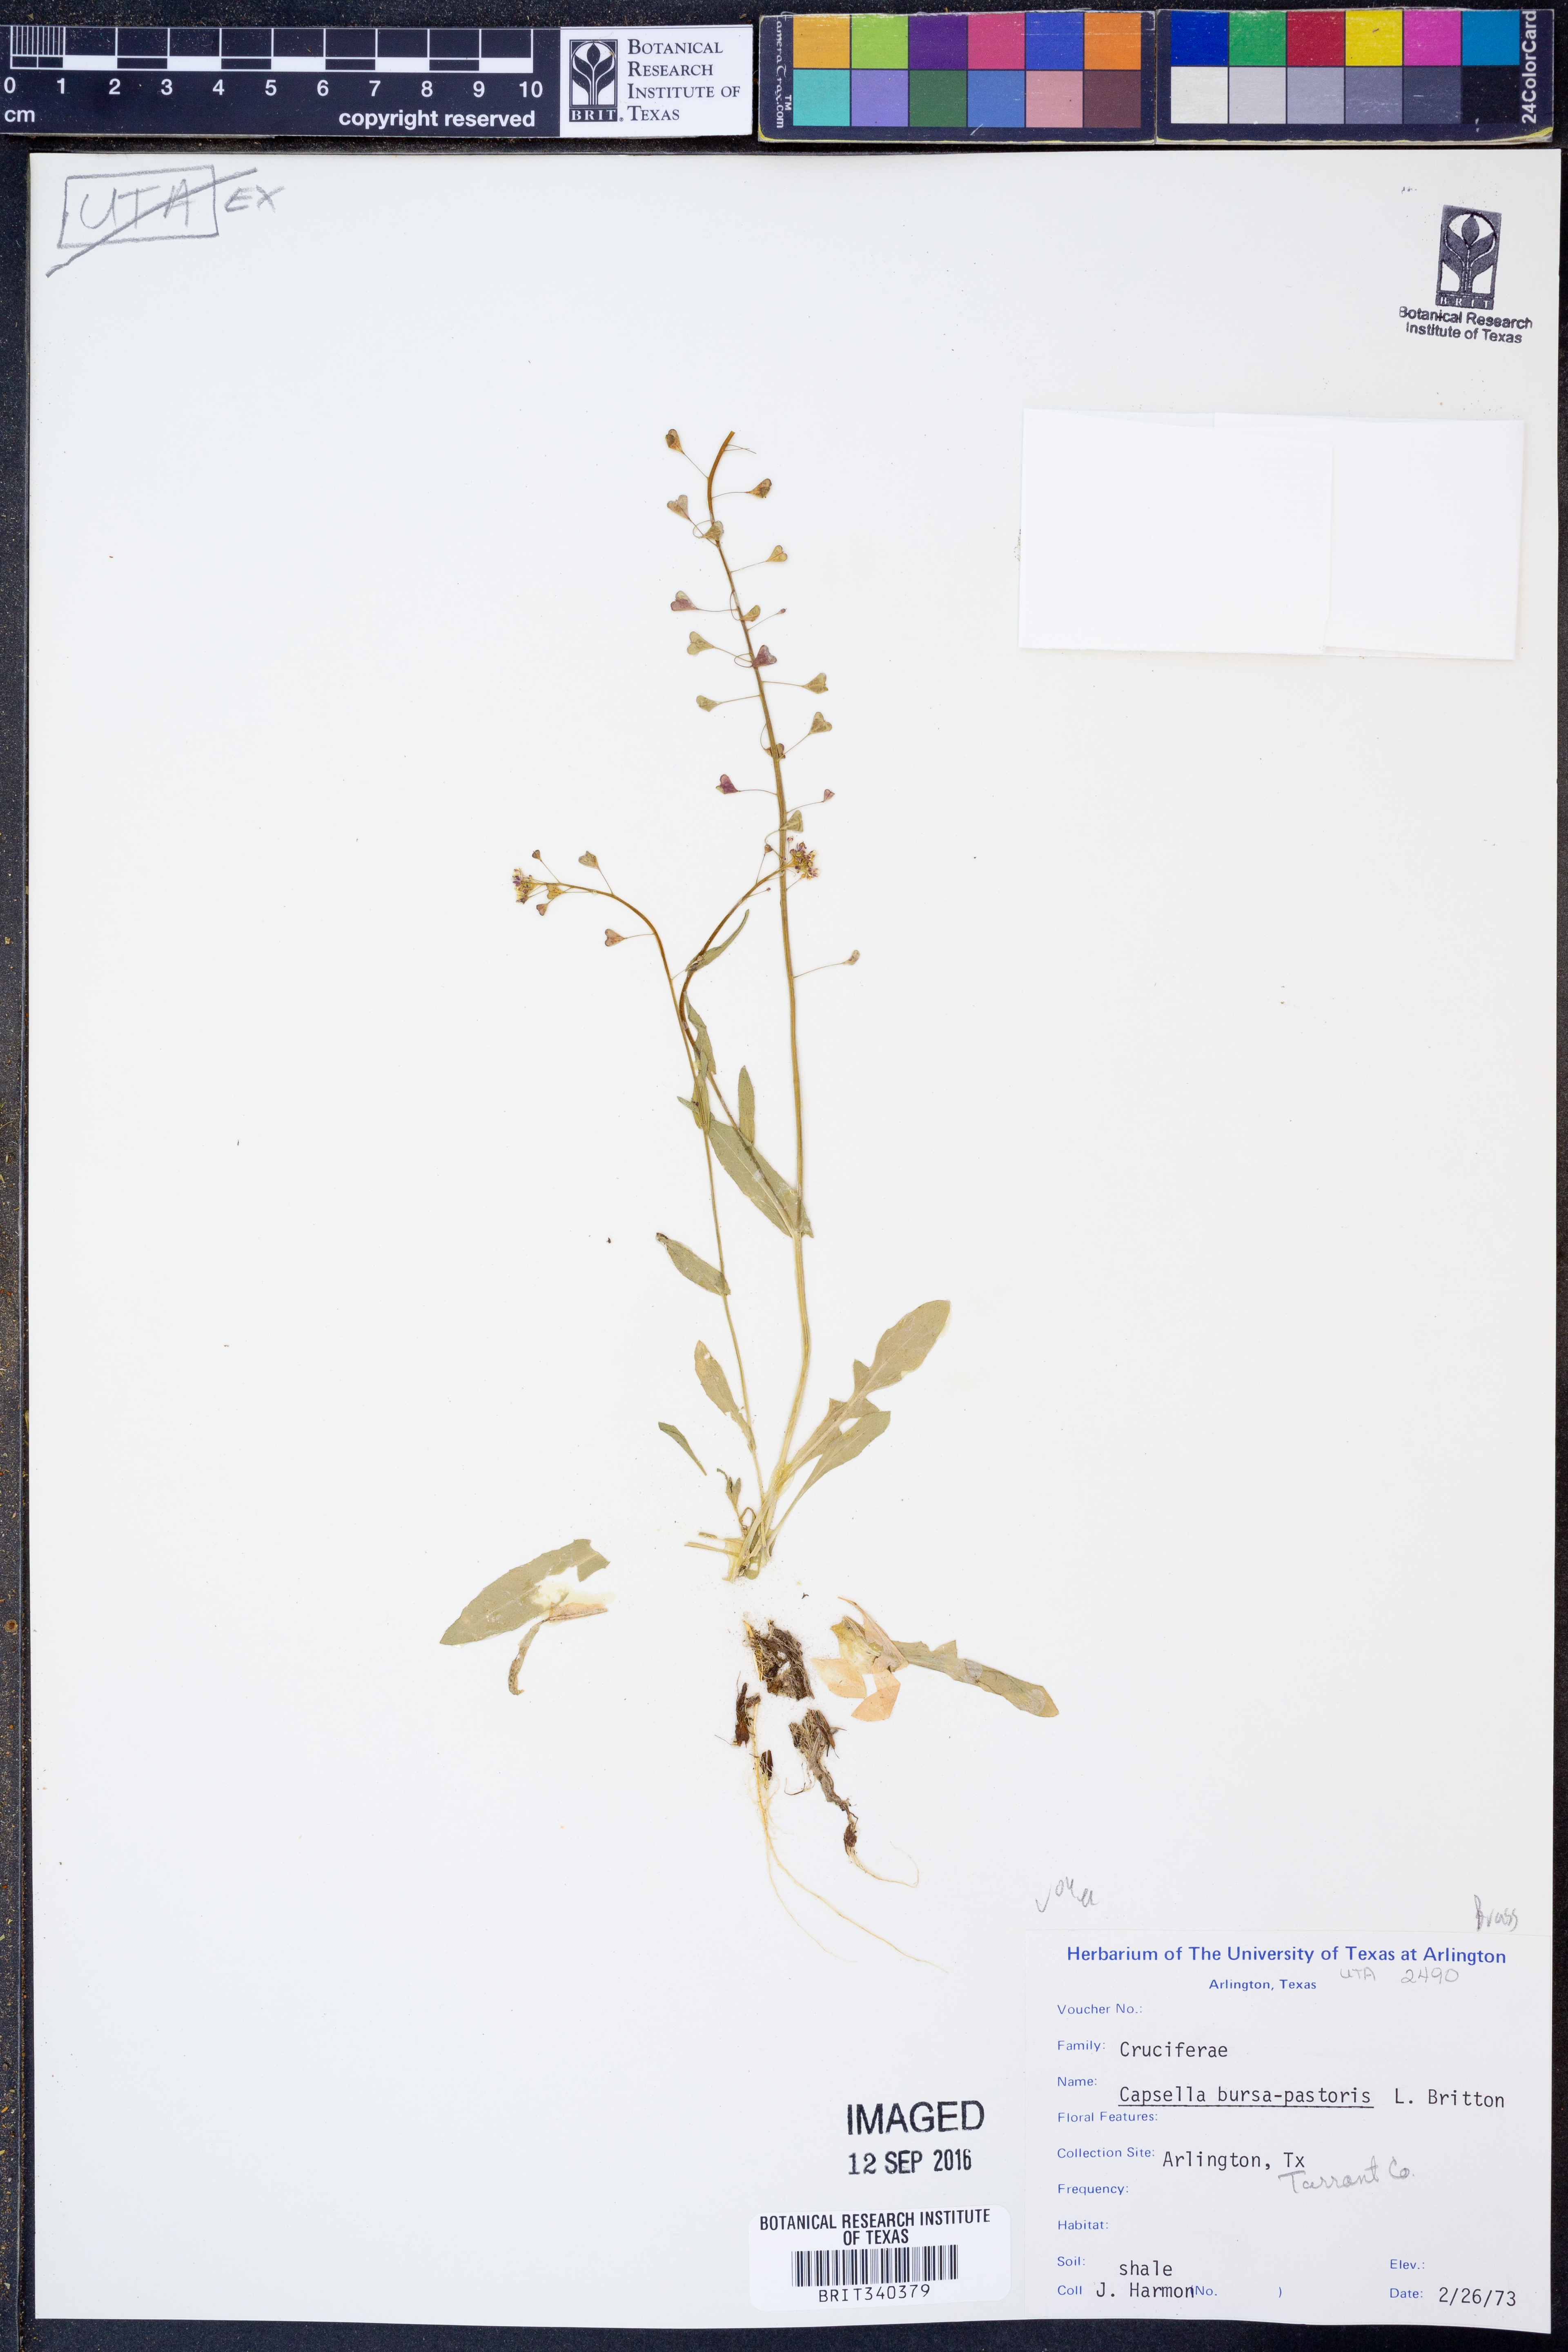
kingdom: Plantae
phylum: Tracheophyta
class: Magnoliopsida
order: Brassicales
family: Brassicaceae
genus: Capsella
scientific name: Capsella bursa-pastoris
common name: Shepherd's purse
